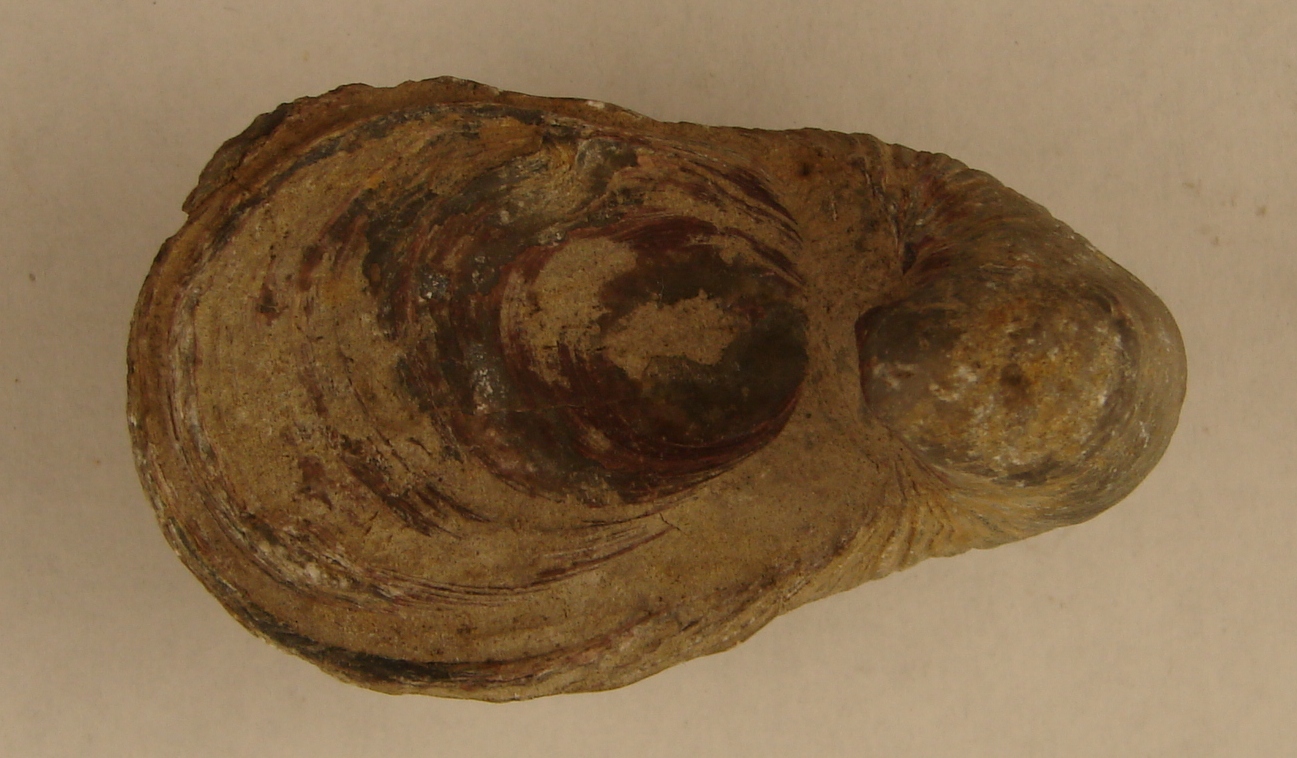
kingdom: Animalia
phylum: Mollusca
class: Bivalvia
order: Ostreida
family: Gryphaeidae
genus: Gryphaea
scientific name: Gryphaea arcuata
